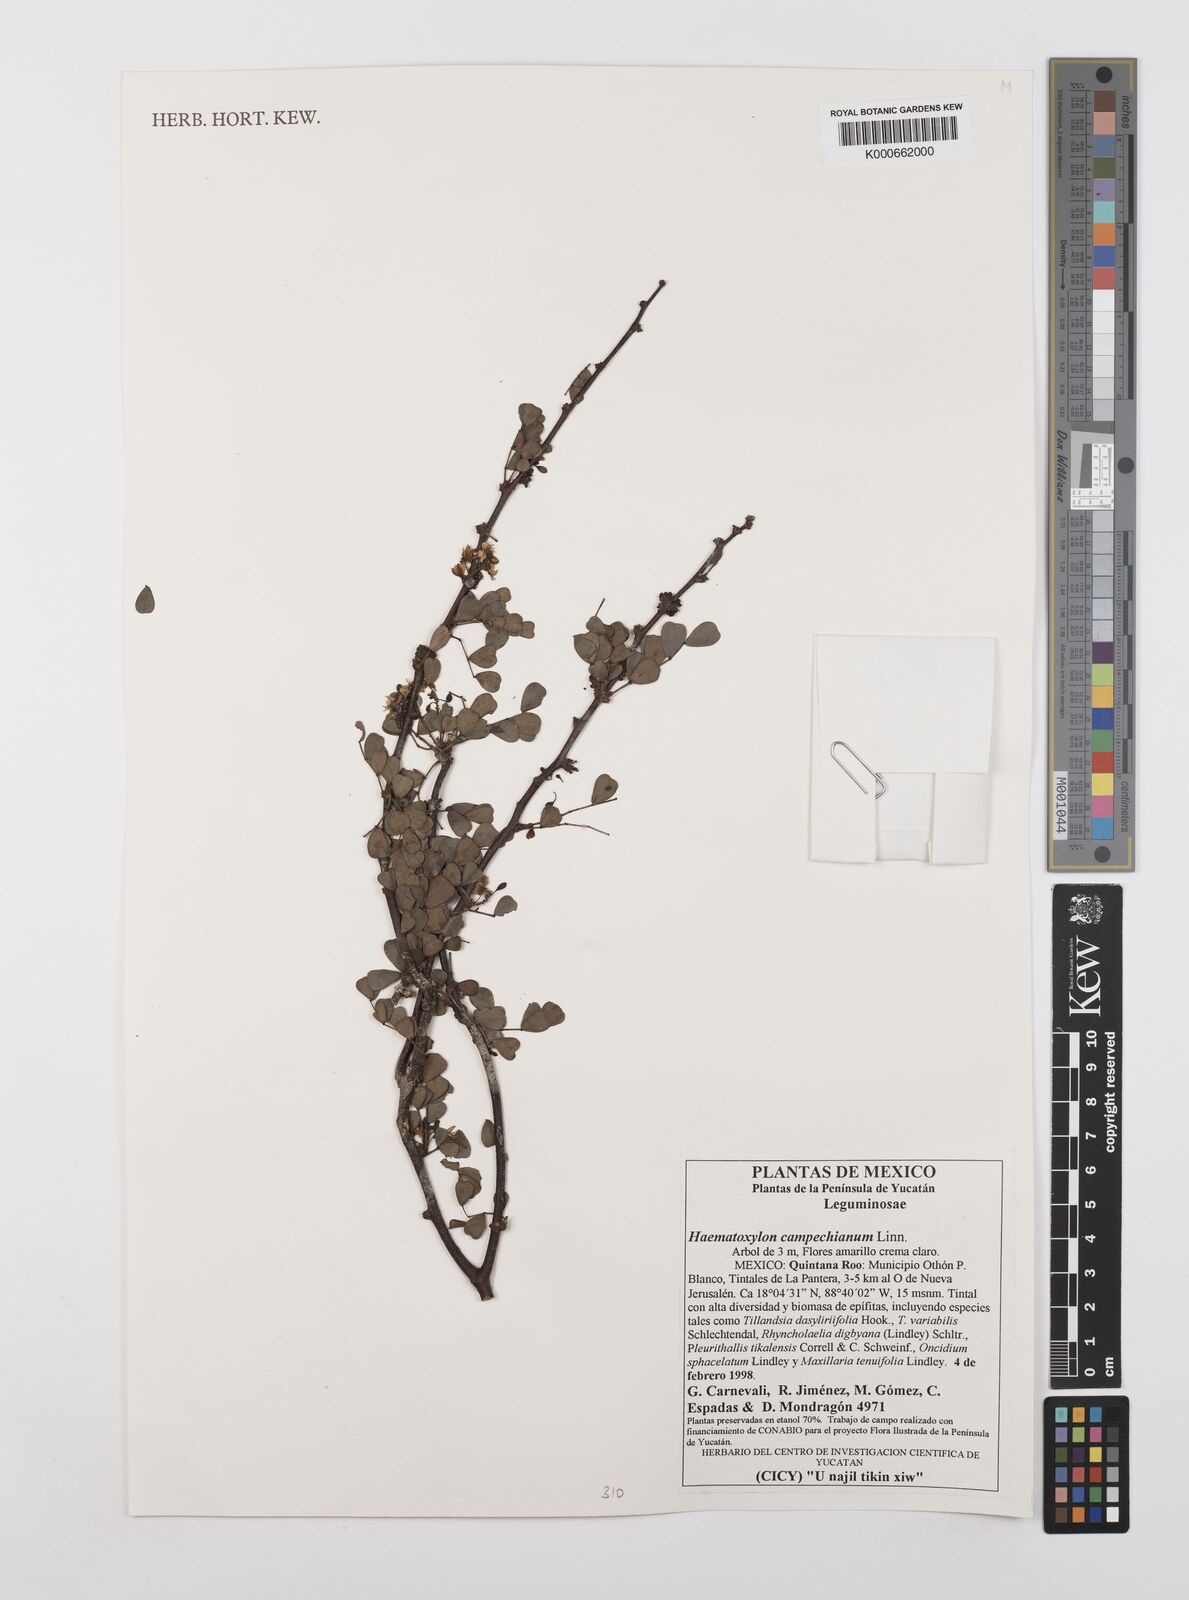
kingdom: Plantae
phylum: Tracheophyta
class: Magnoliopsida
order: Fabales
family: Fabaceae
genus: Haematoxylum
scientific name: Haematoxylum
